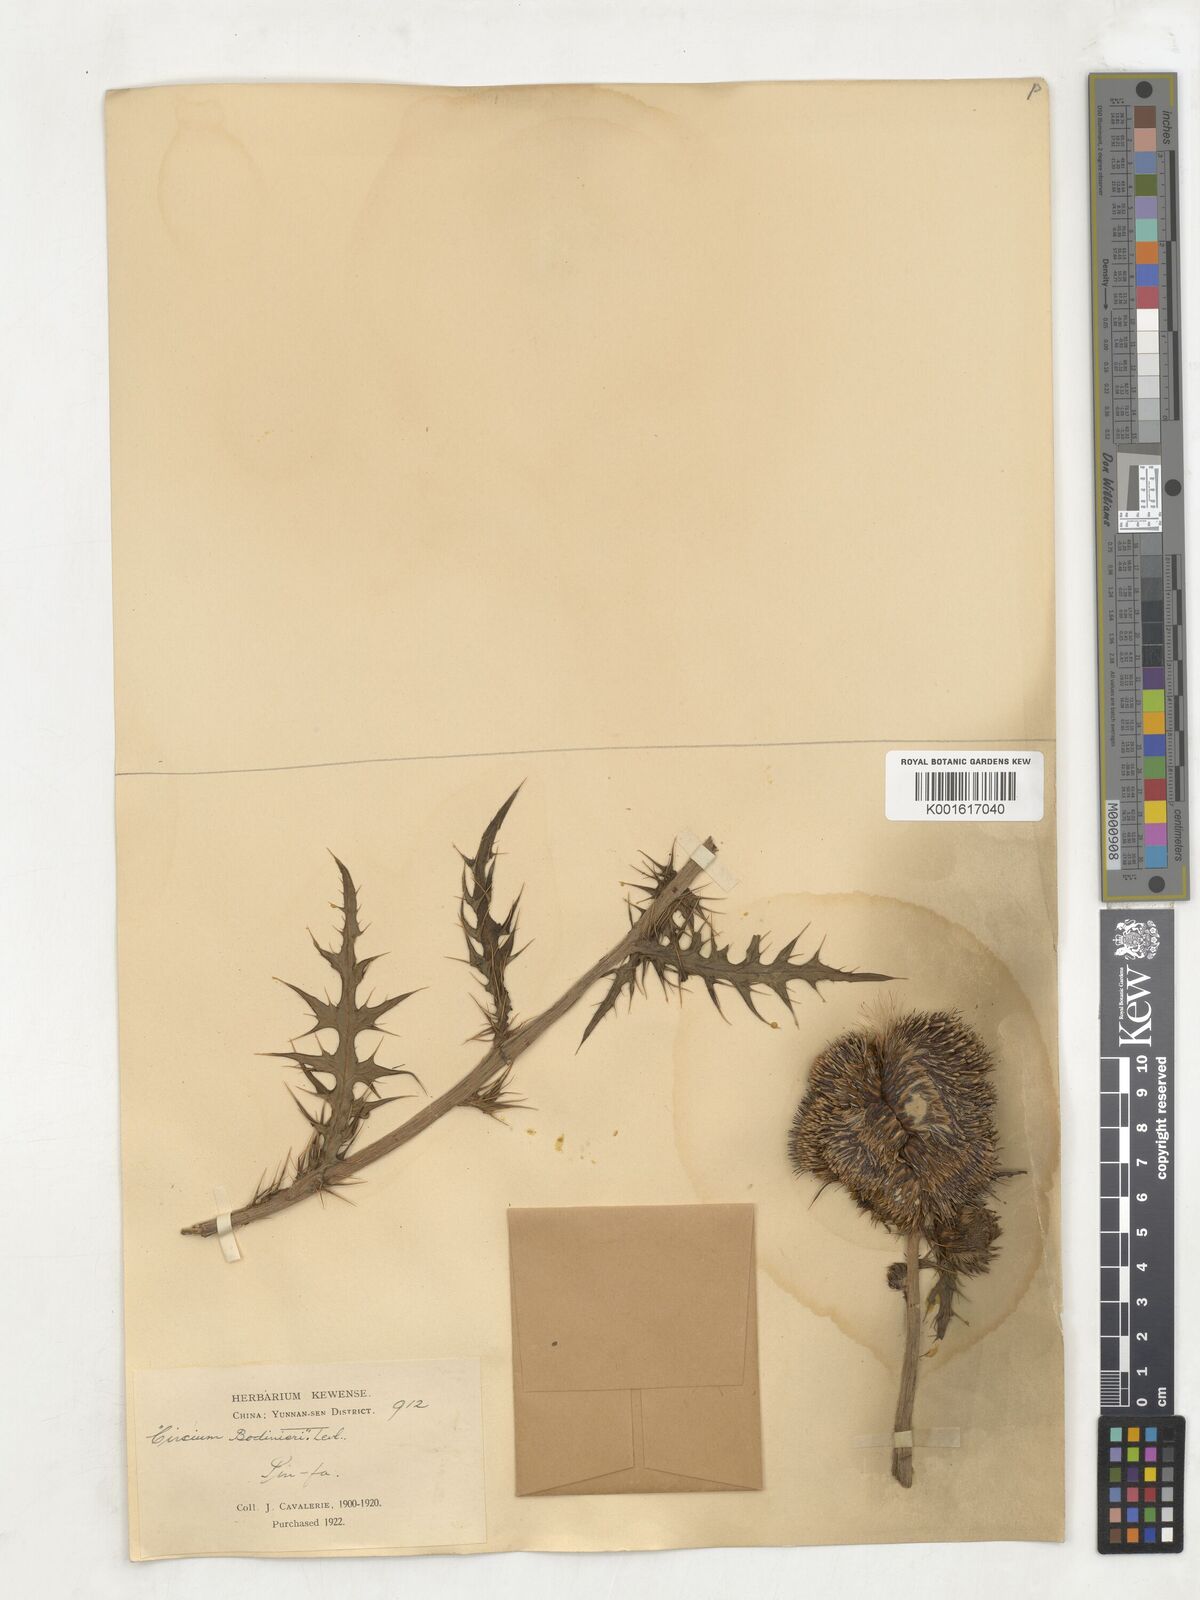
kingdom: Plantae
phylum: Tracheophyta
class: Magnoliopsida
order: Asterales
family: Asteraceae
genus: Cirsium
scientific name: Cirsium japonicum
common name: Japanese thistle
